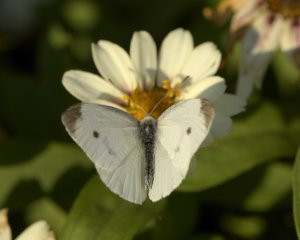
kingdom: Animalia
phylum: Arthropoda
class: Insecta
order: Lepidoptera
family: Pieridae
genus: Pieris
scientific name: Pieris rapae
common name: Cabbage White
